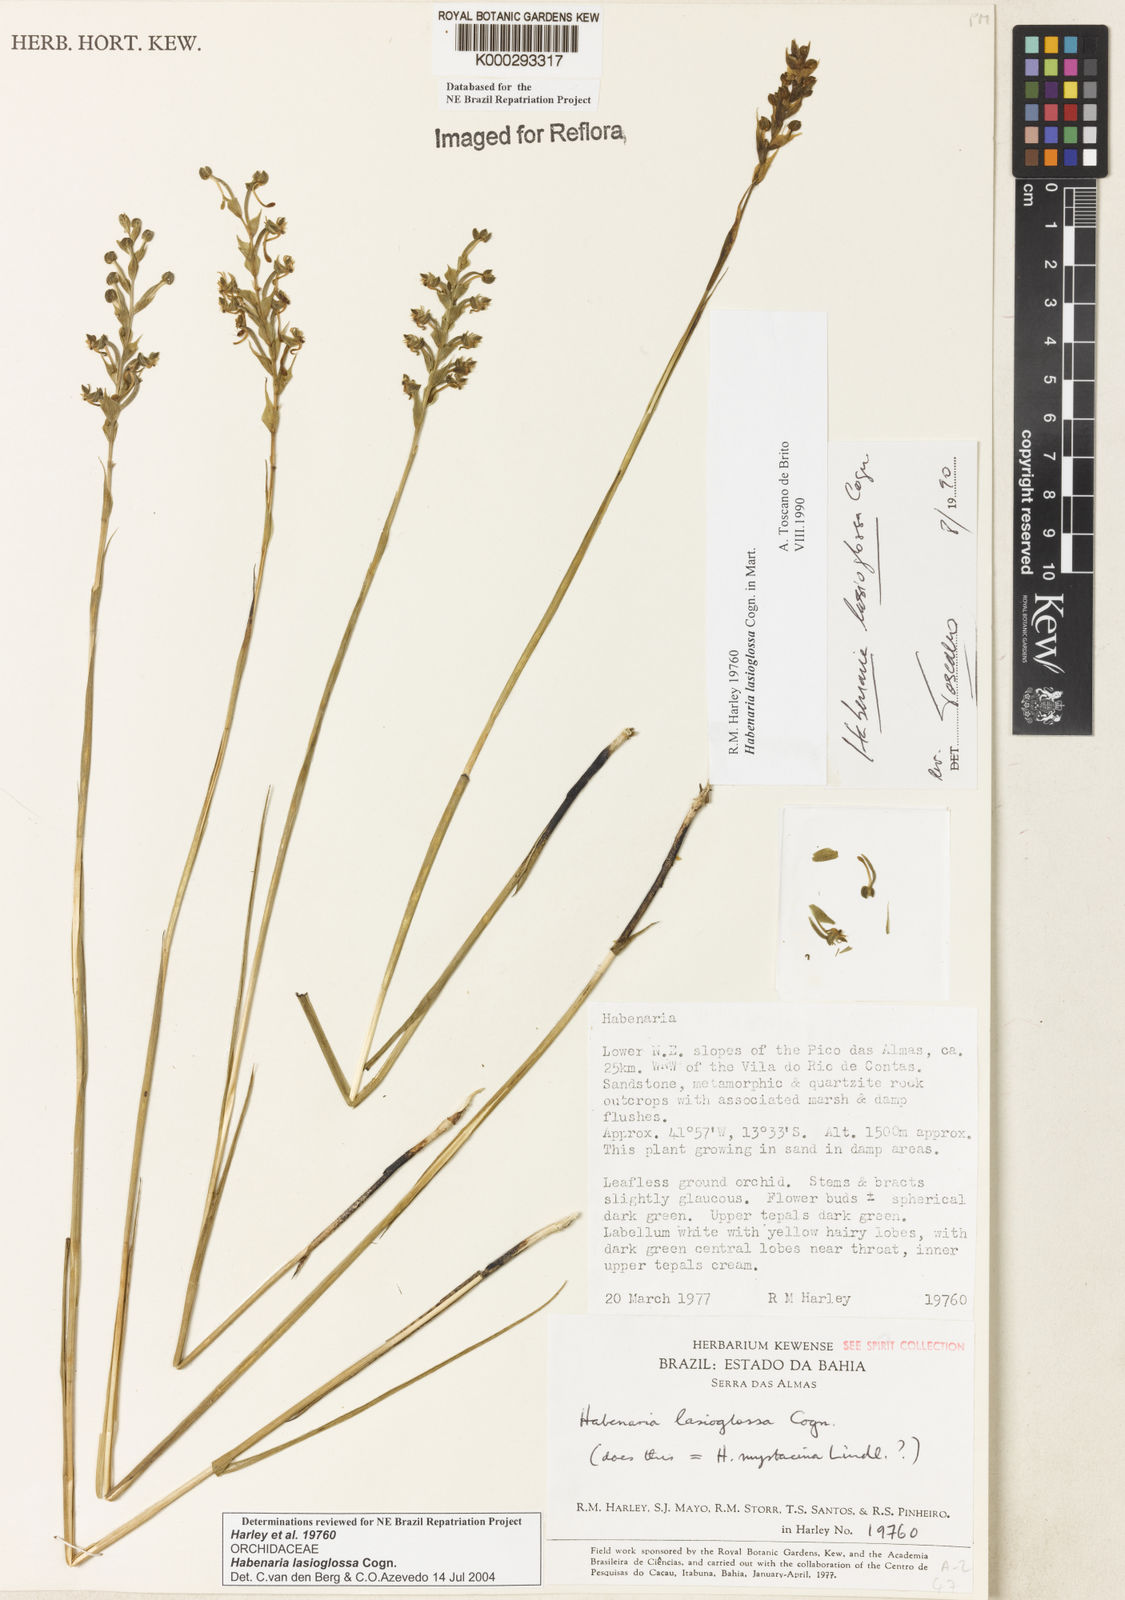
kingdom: Plantae
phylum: Tracheophyta
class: Liliopsida
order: Asparagales
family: Orchidaceae
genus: Habenaria
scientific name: Habenaria mystacina
